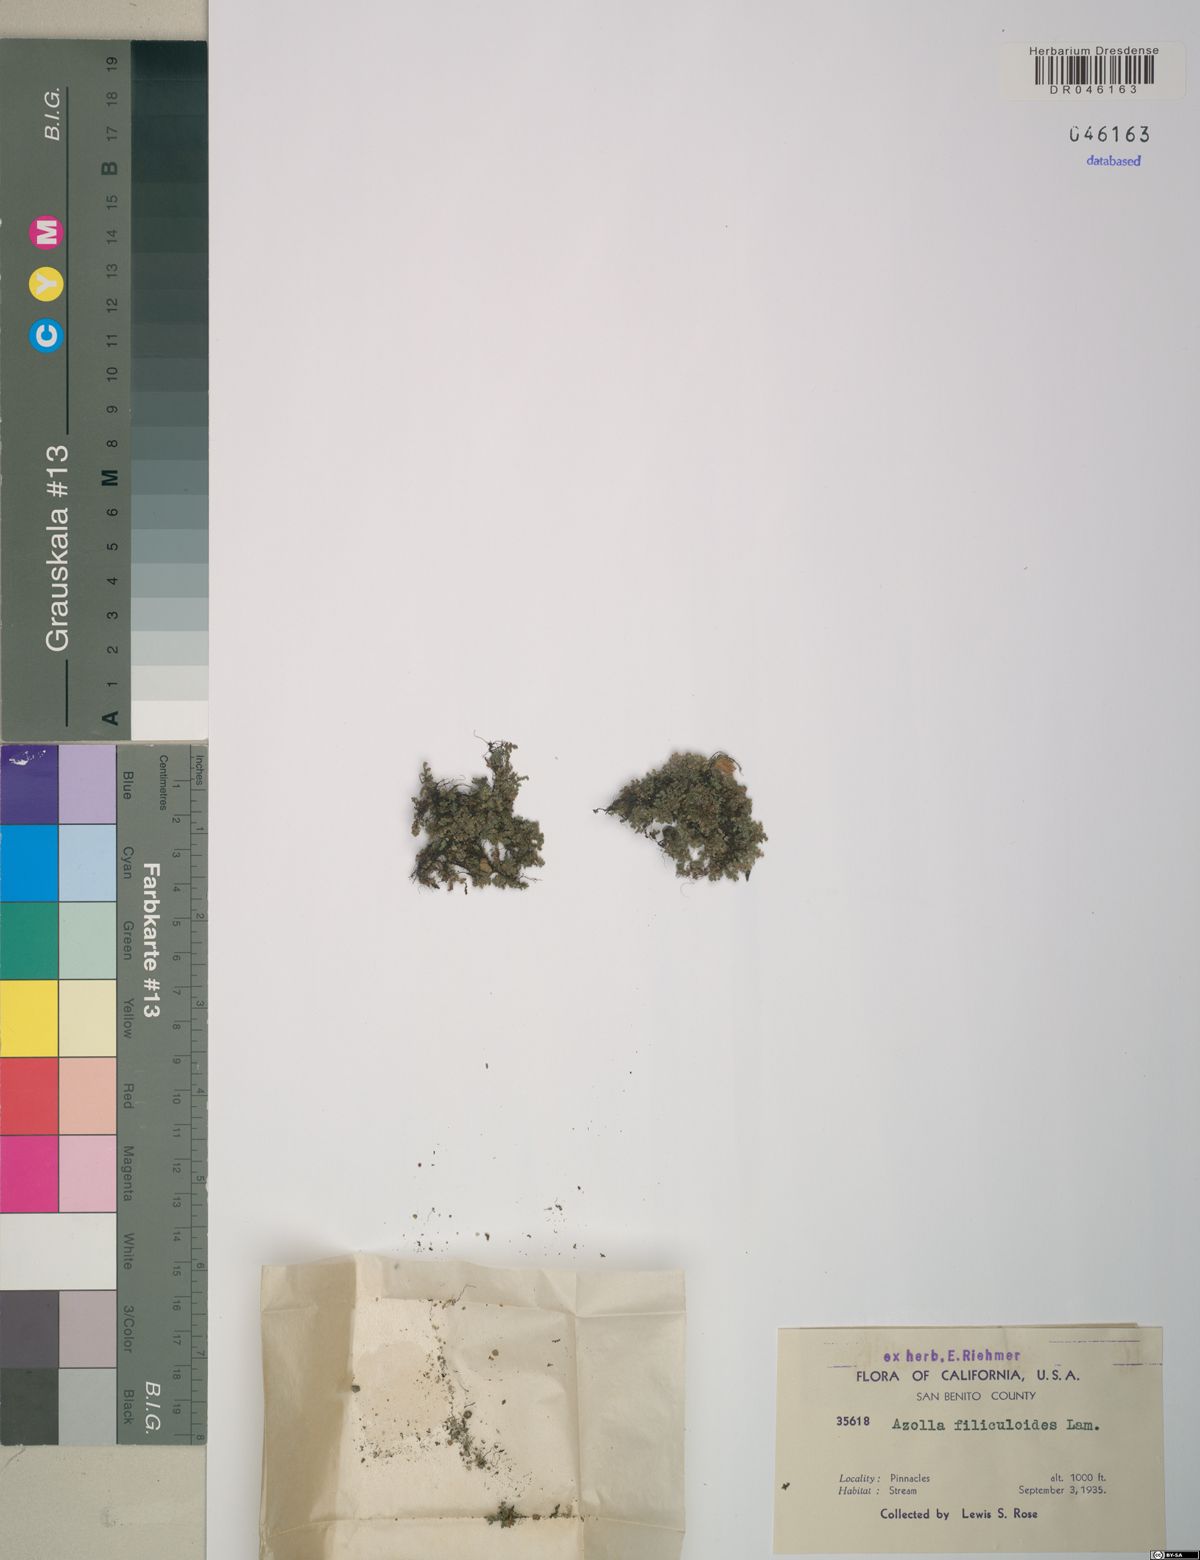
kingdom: Plantae
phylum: Tracheophyta
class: Polypodiopsida
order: Salviniales
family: Salviniaceae
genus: Azolla
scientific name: Azolla filiculoides
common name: Water fern
